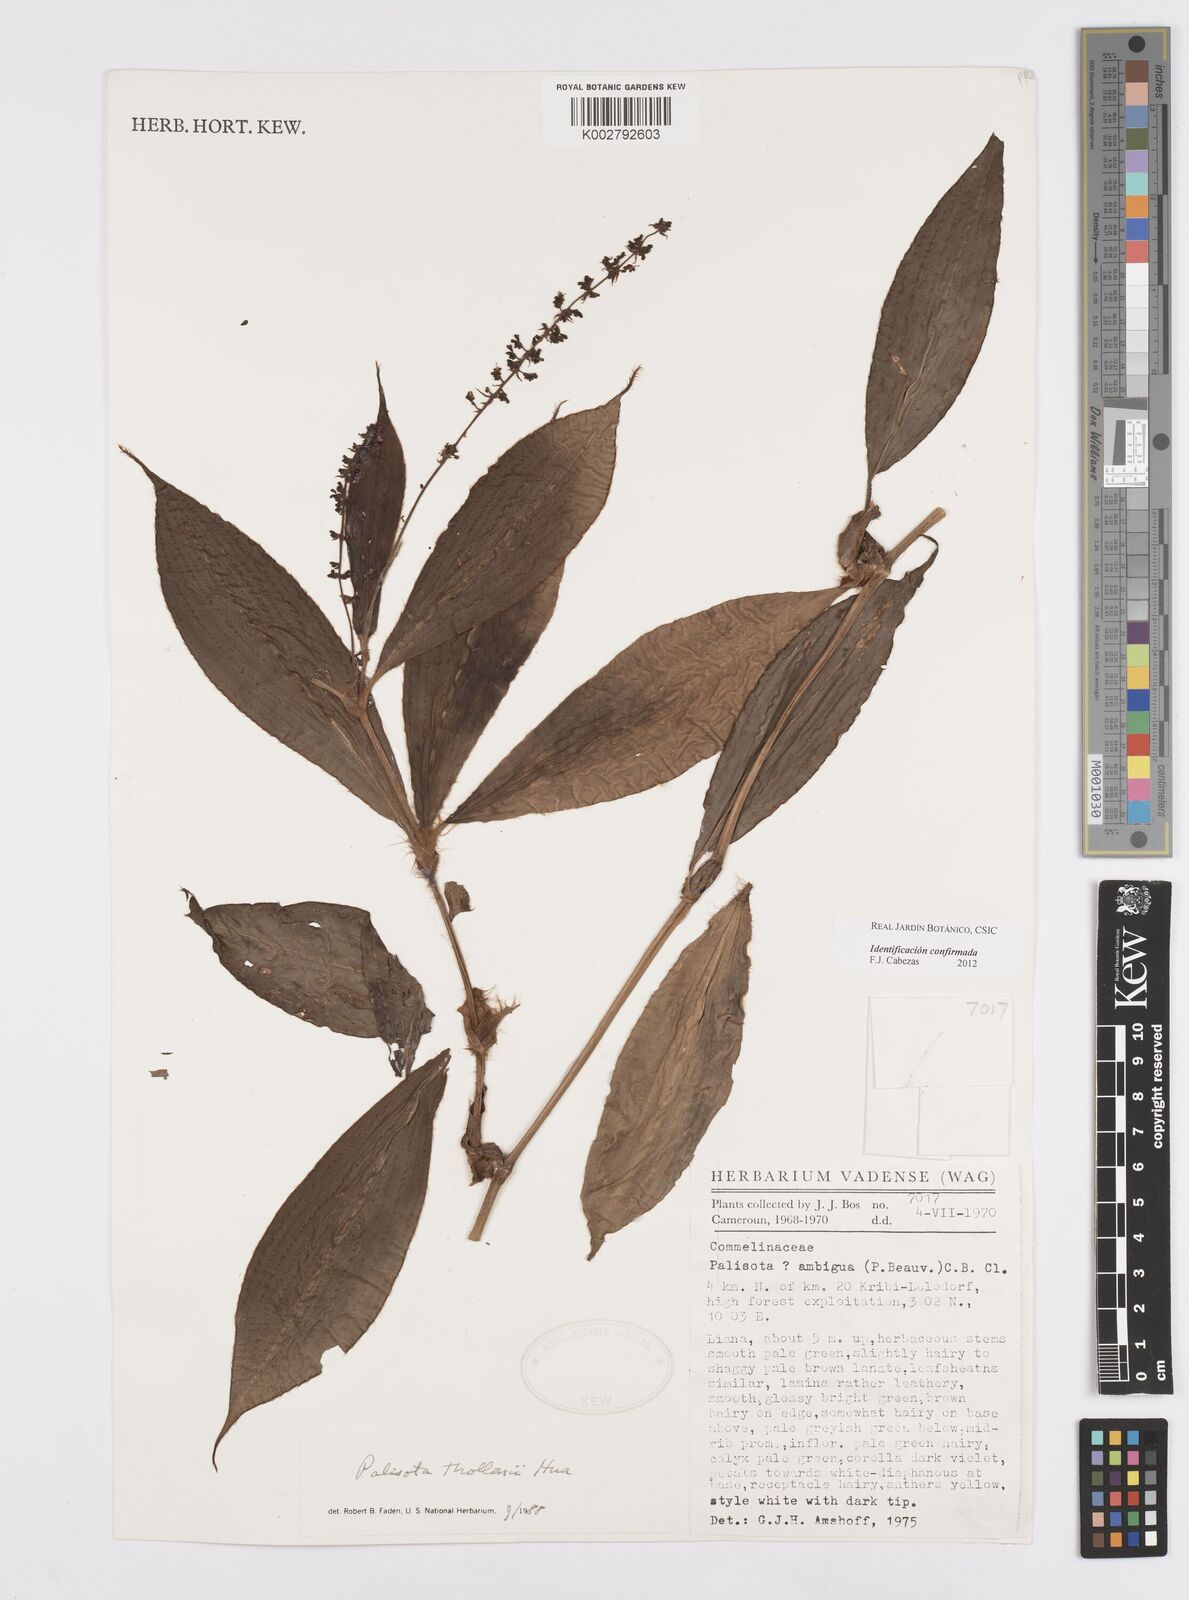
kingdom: Plantae
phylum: Tracheophyta
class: Liliopsida
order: Commelinales
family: Commelinaceae
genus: Palisota
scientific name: Palisota thollonii
